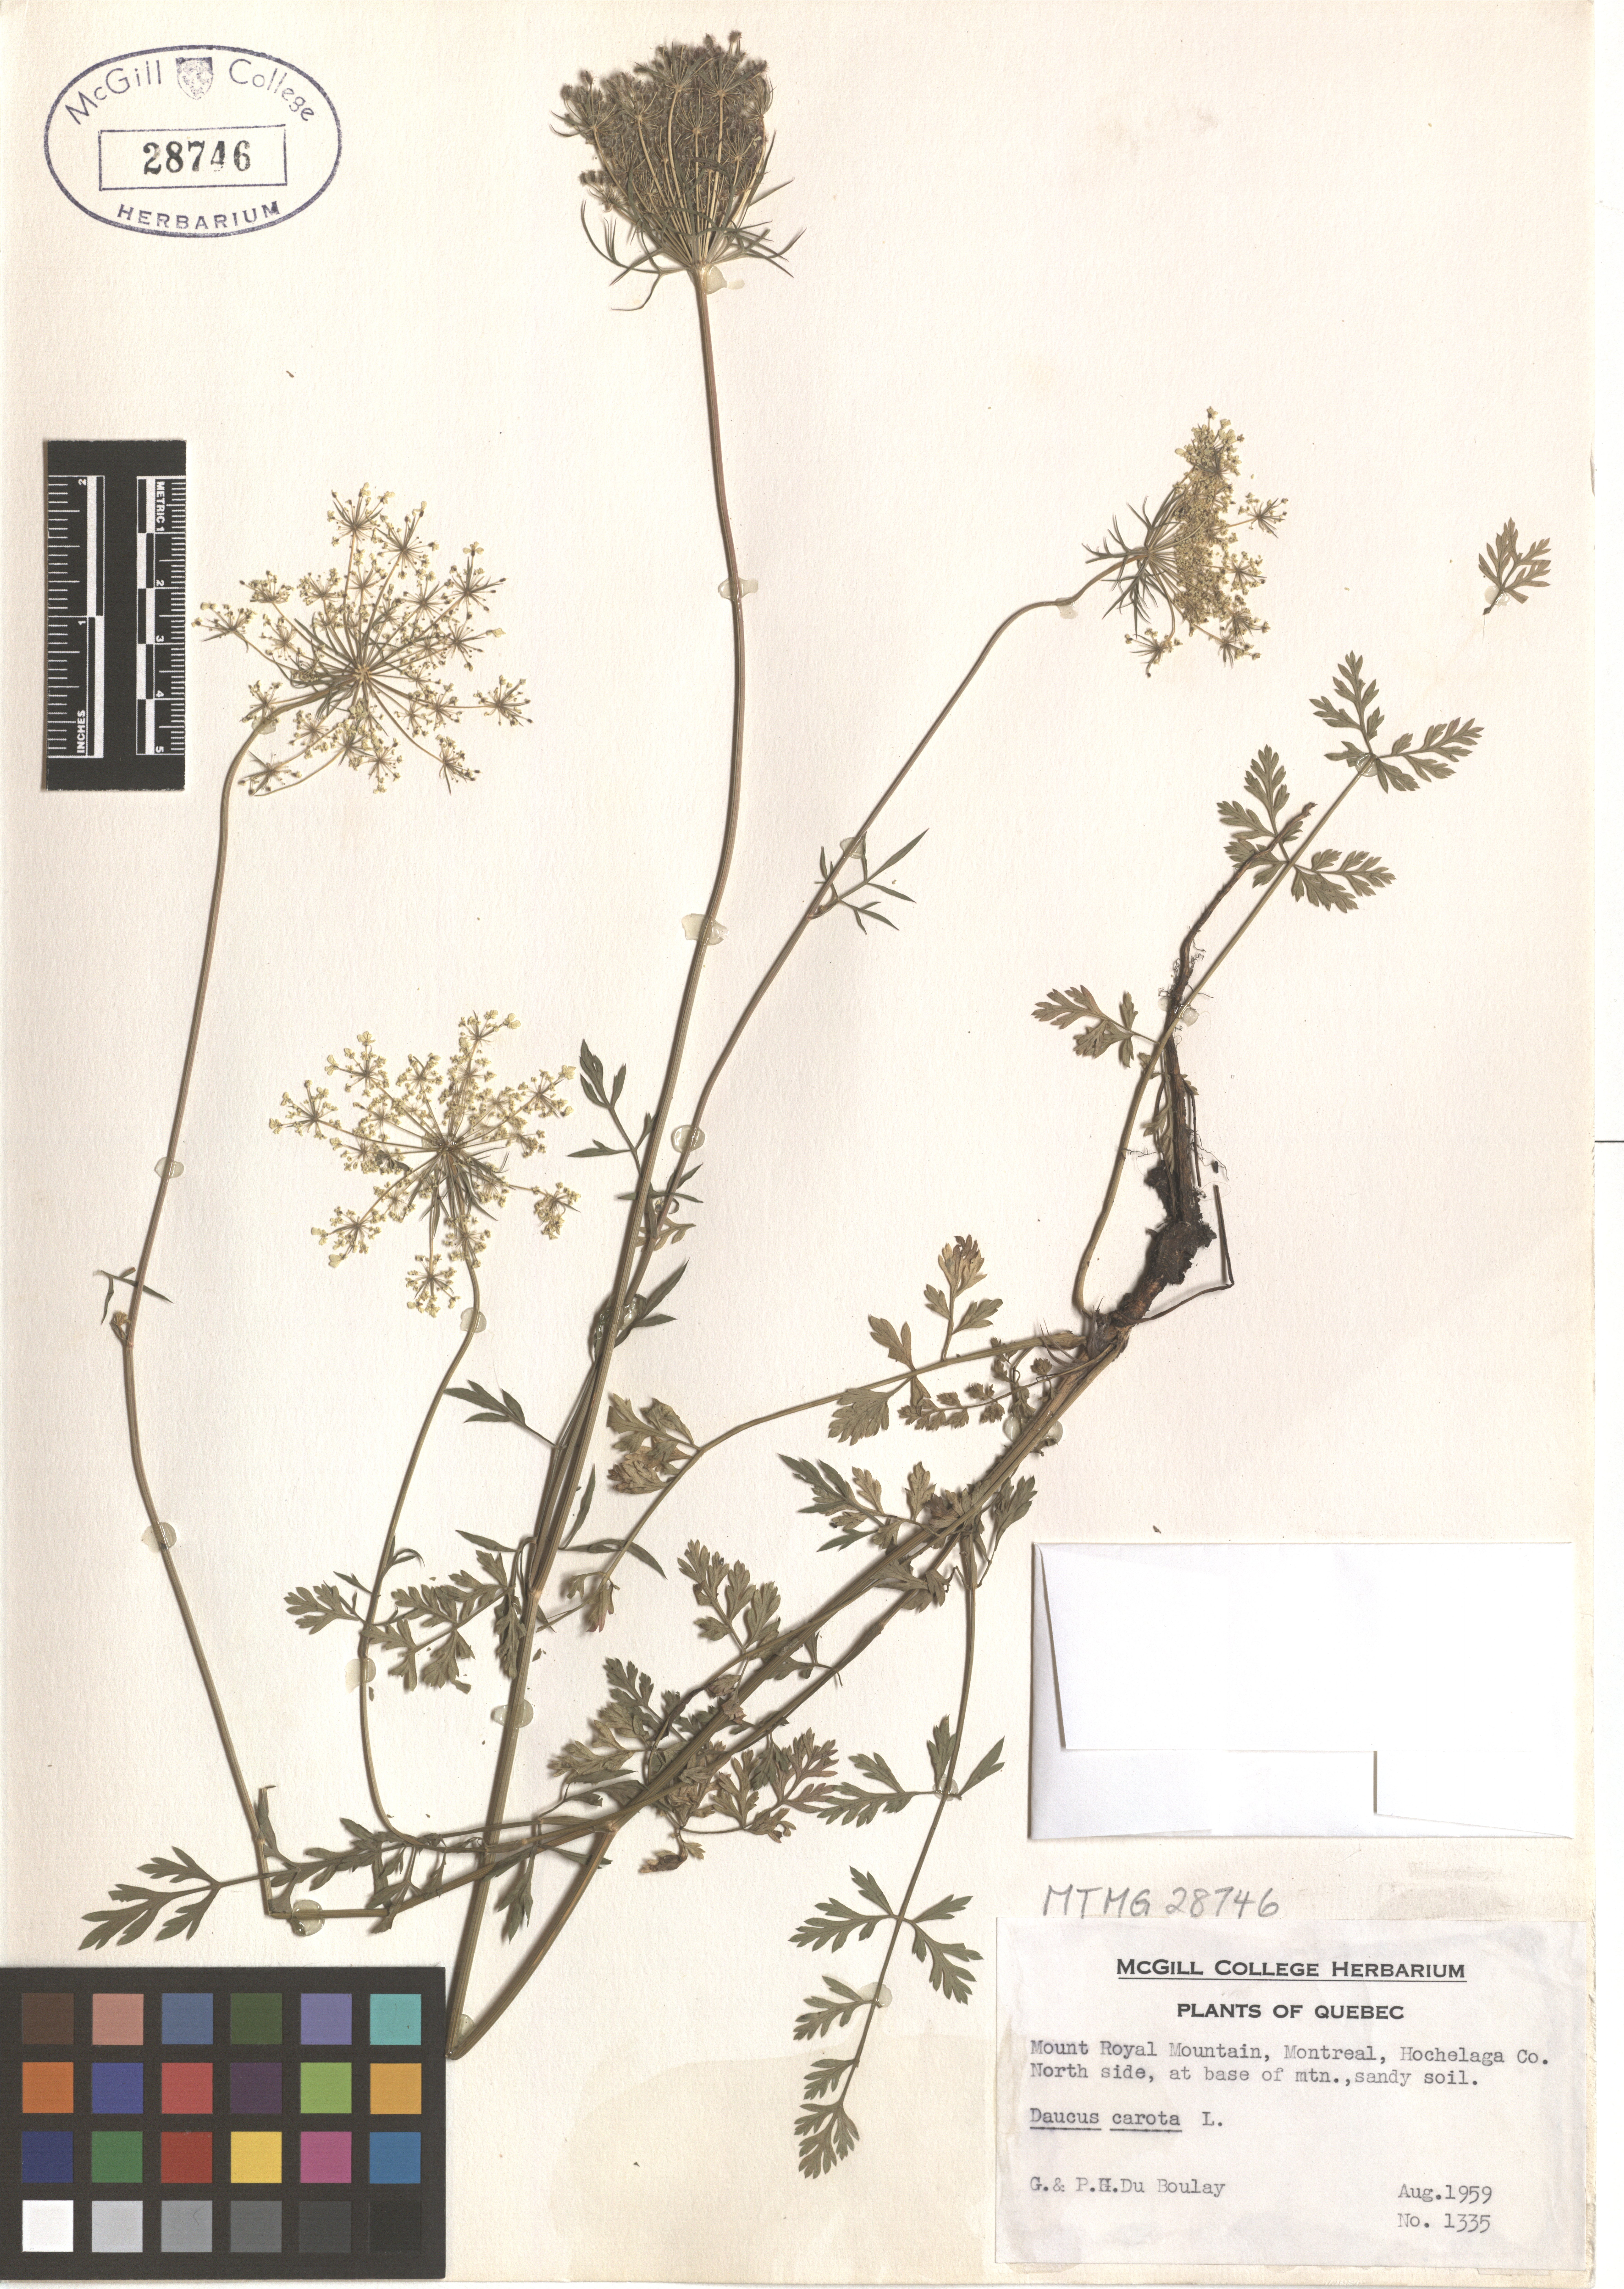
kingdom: Plantae
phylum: Tracheophyta
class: Magnoliopsida
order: Apiales
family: Apiaceae
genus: Daucus
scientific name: Daucus carota
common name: Wild carrot
